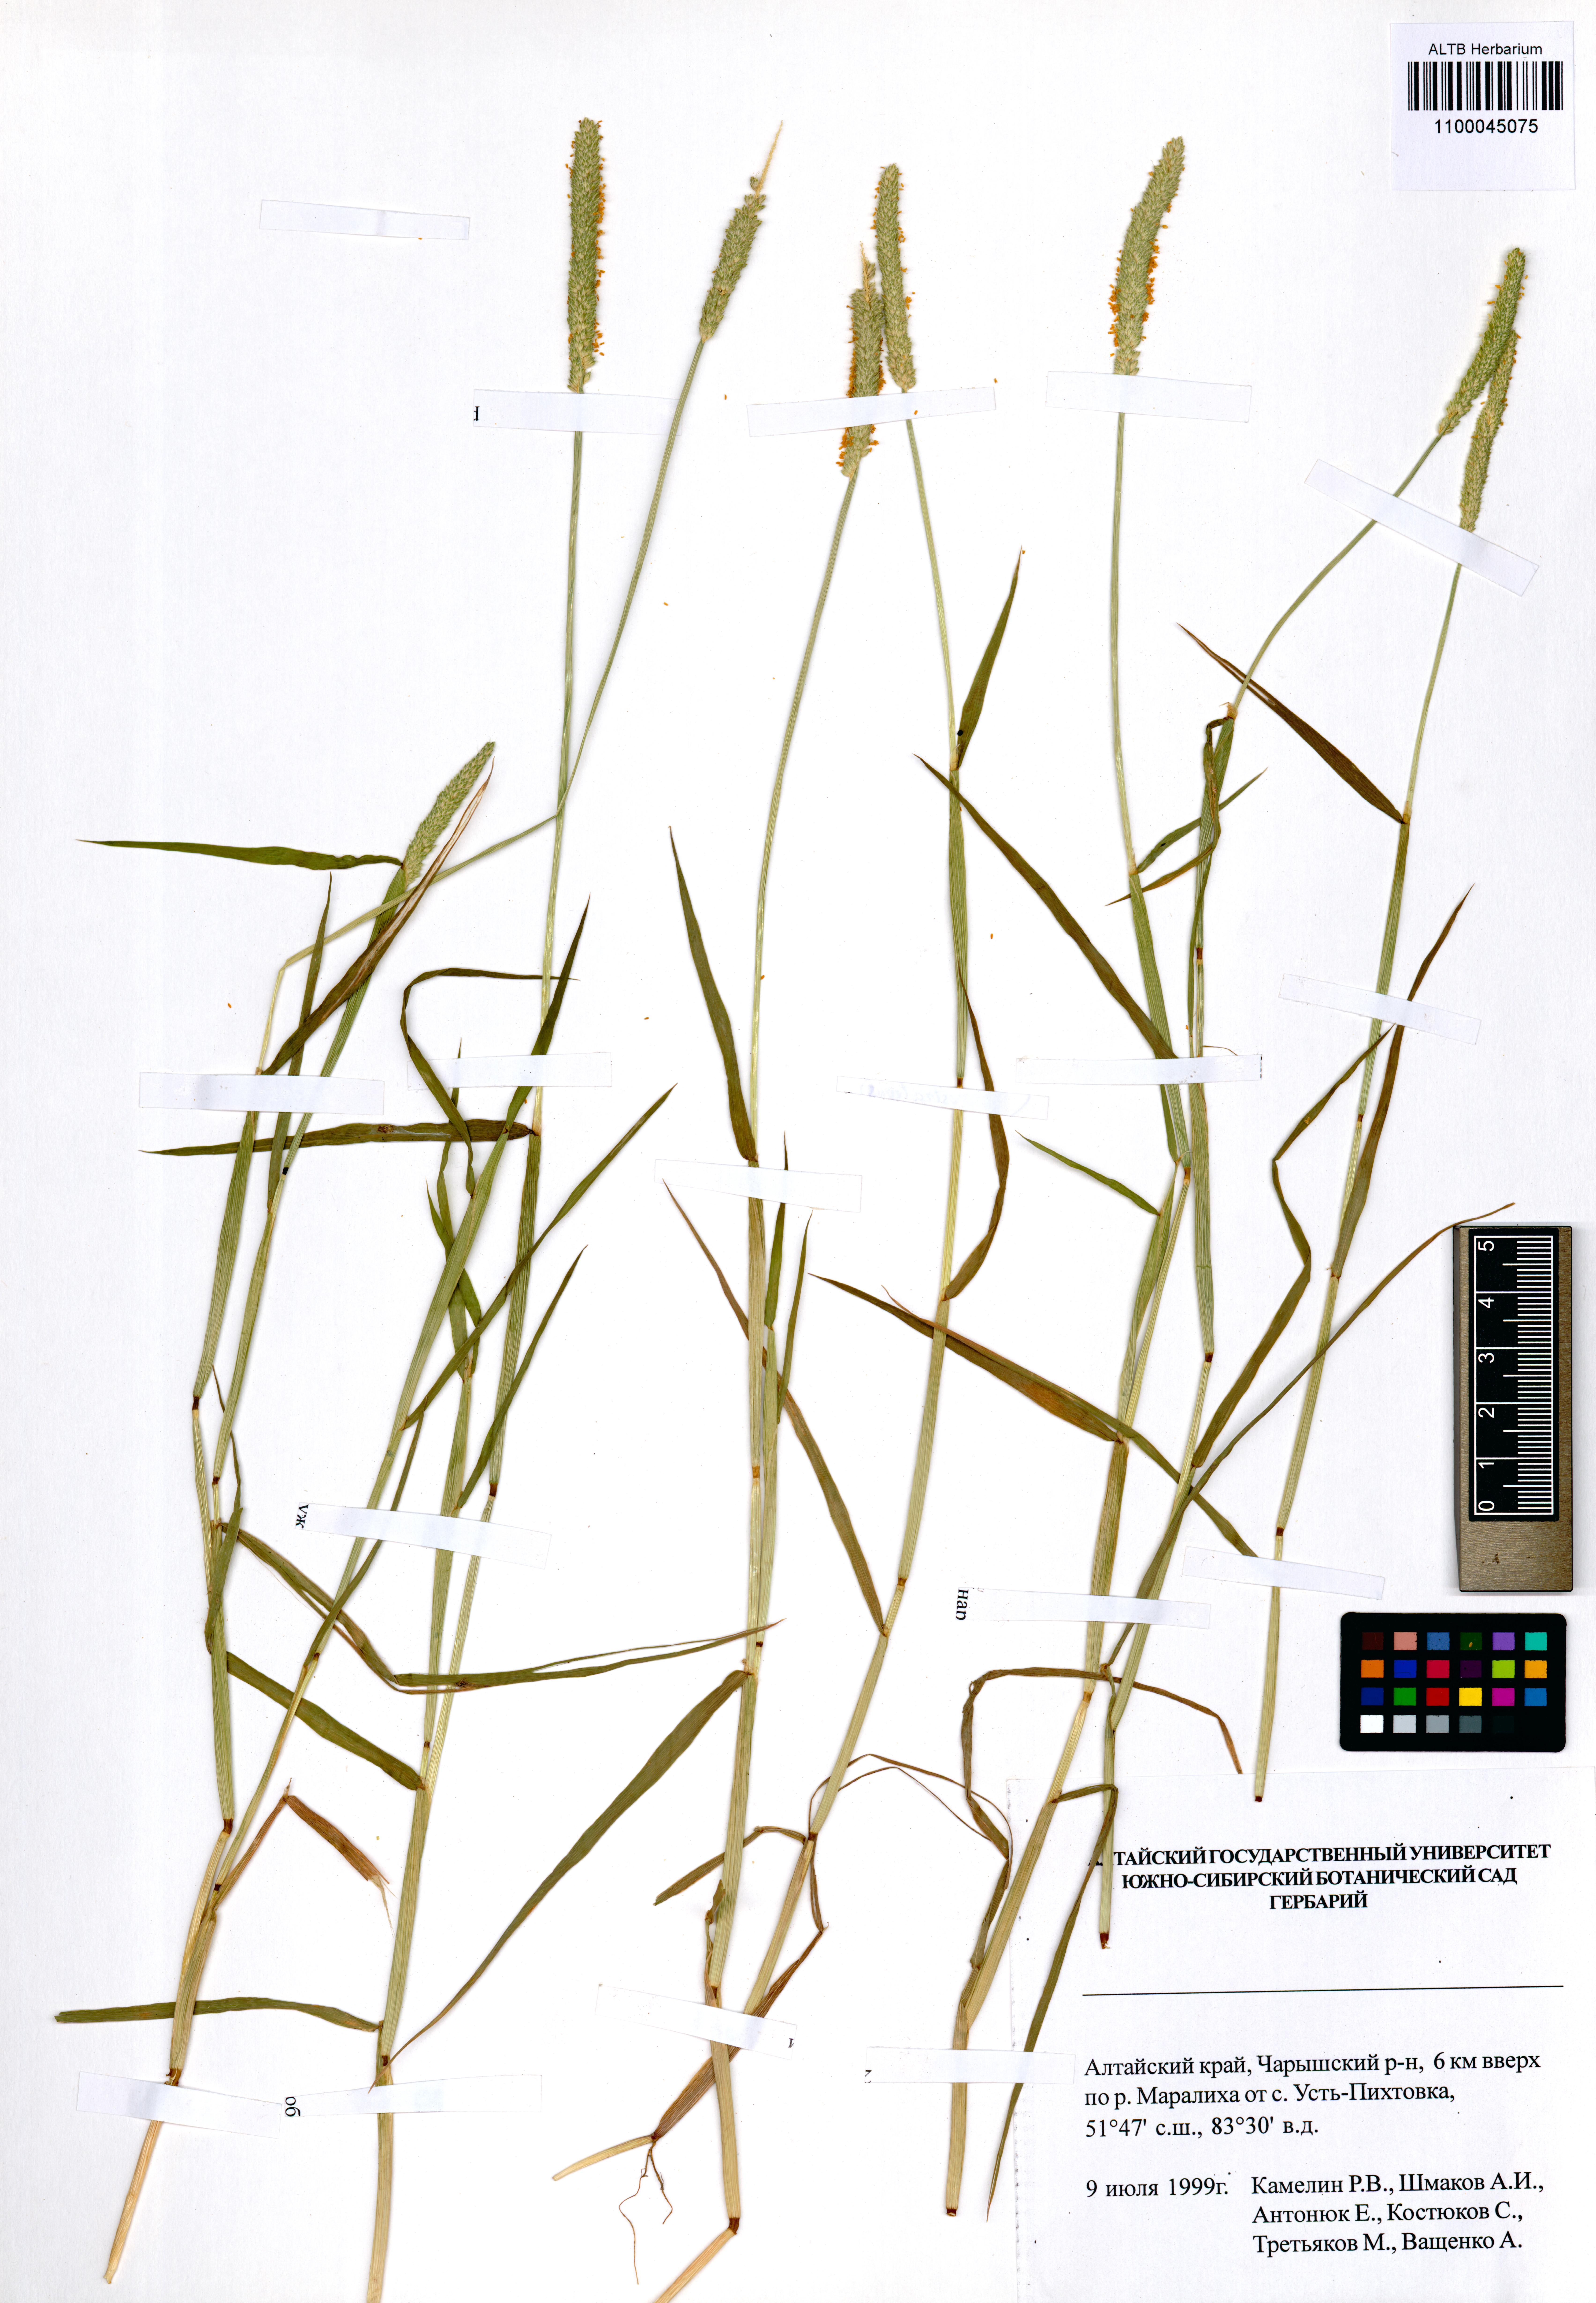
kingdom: Plantae
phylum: Tracheophyta
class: Liliopsida
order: Poales
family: Poaceae
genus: Alopecurus
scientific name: Alopecurus aequalis
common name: Orange foxtail
